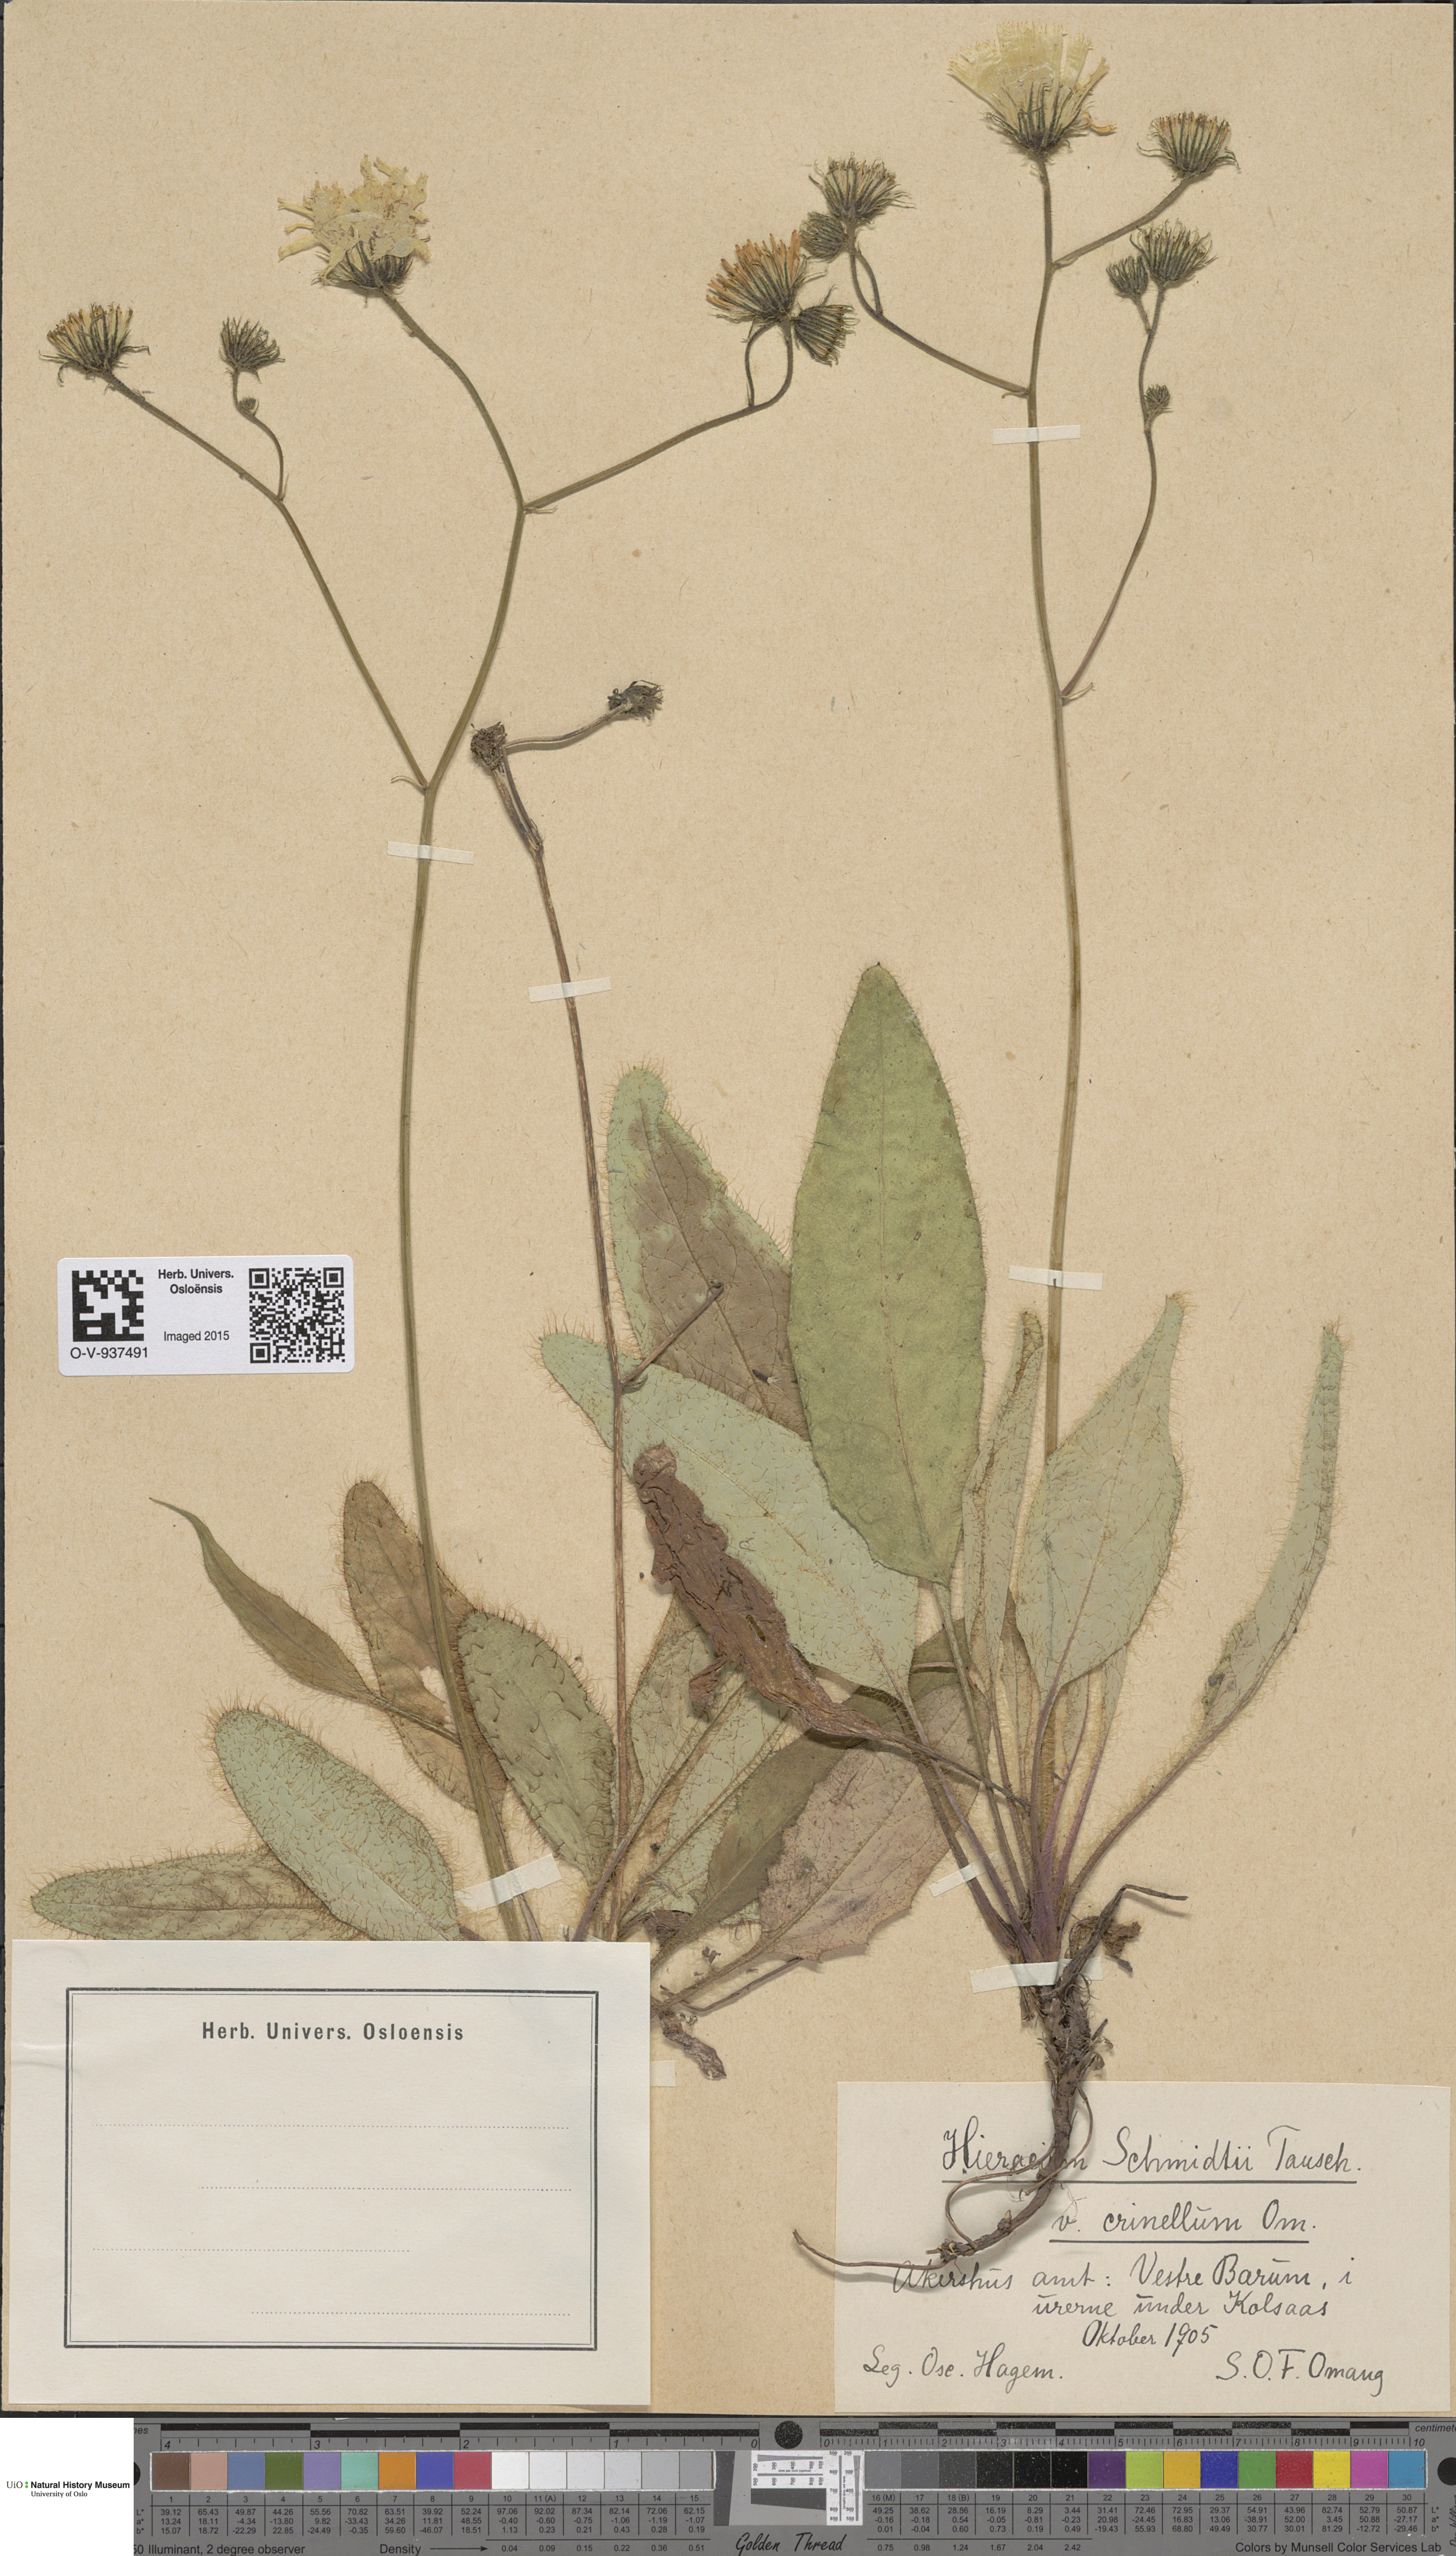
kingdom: Plantae
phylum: Tracheophyta
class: Magnoliopsida
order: Asterales
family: Asteraceae
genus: Hieracium
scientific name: Hieracium schmidtii
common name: Schmidt's hawkweed
